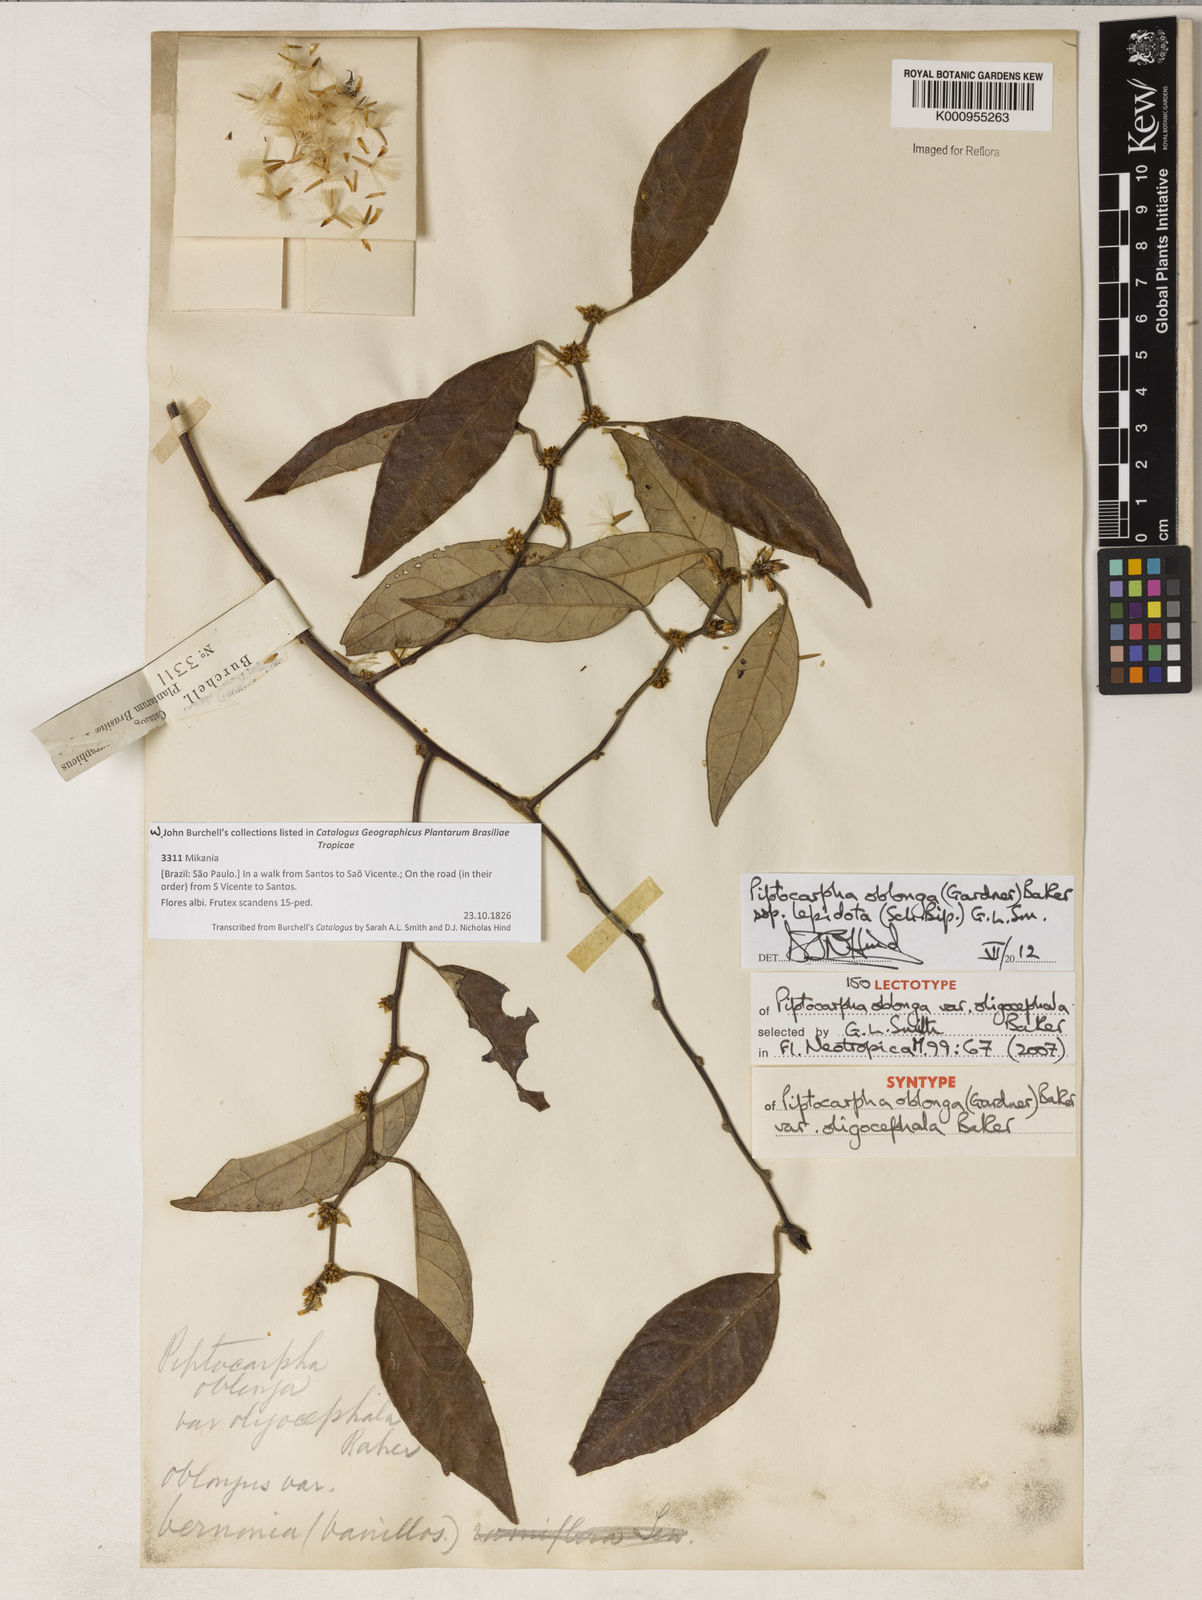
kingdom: Plantae
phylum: Tracheophyta
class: Magnoliopsida
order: Asterales
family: Asteraceae
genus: Piptocarpha
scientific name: Piptocarpha oblonga
